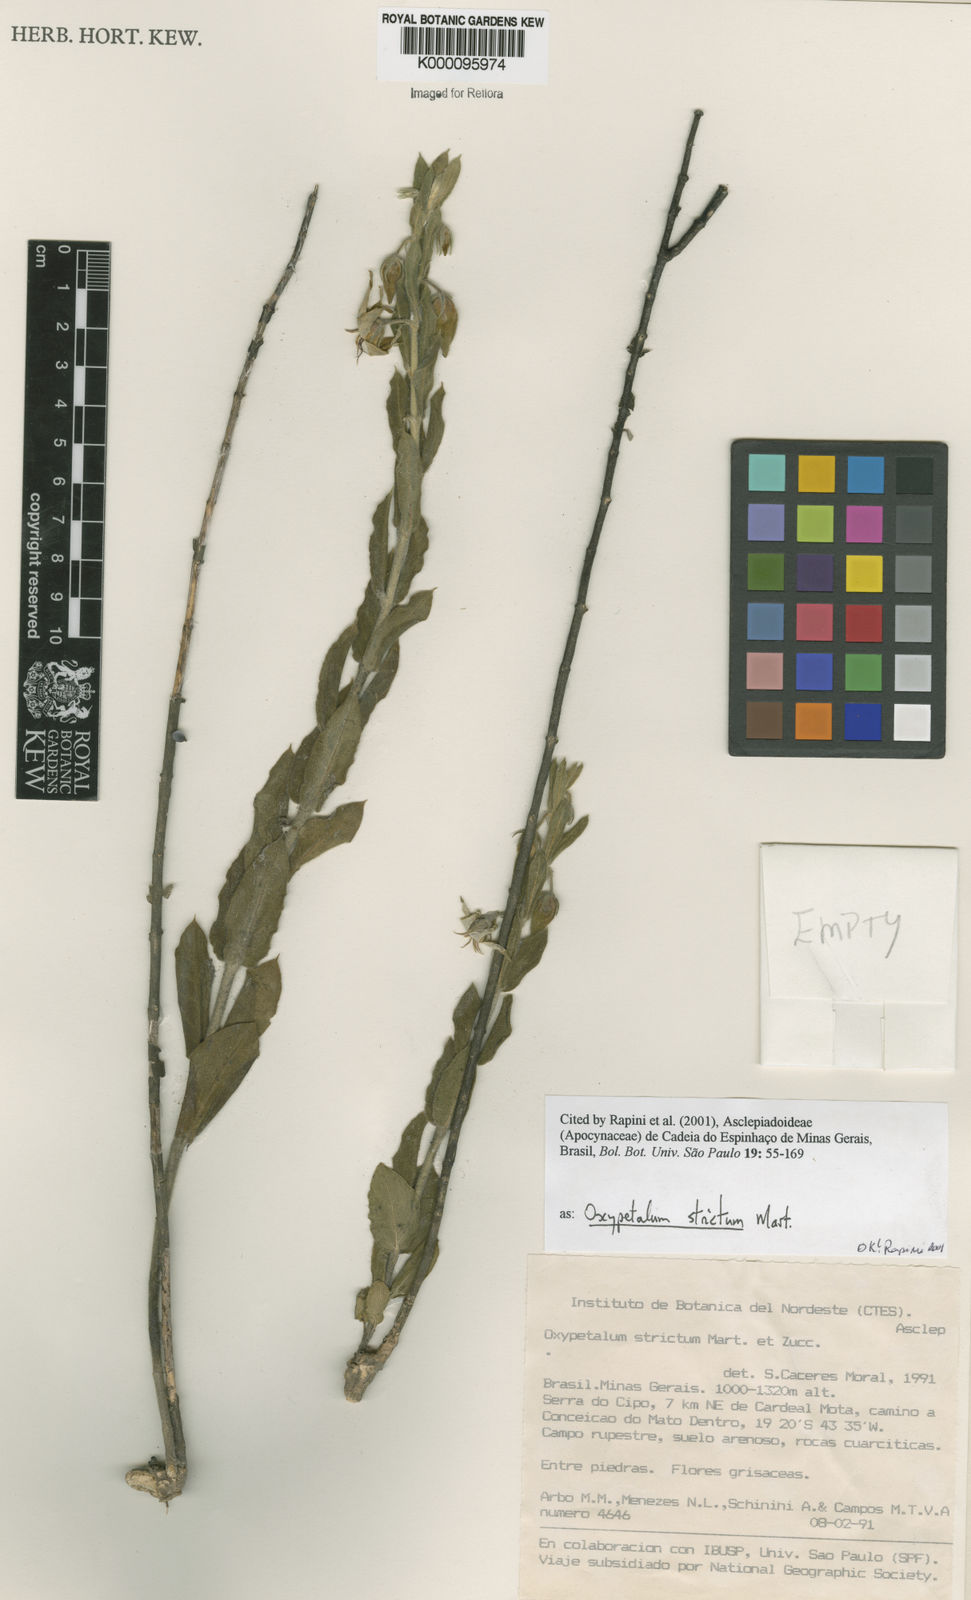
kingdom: Plantae
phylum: Tracheophyta
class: Magnoliopsida
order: Gentianales
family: Apocynaceae
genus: Oxypetalum
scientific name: Oxypetalum strictum
